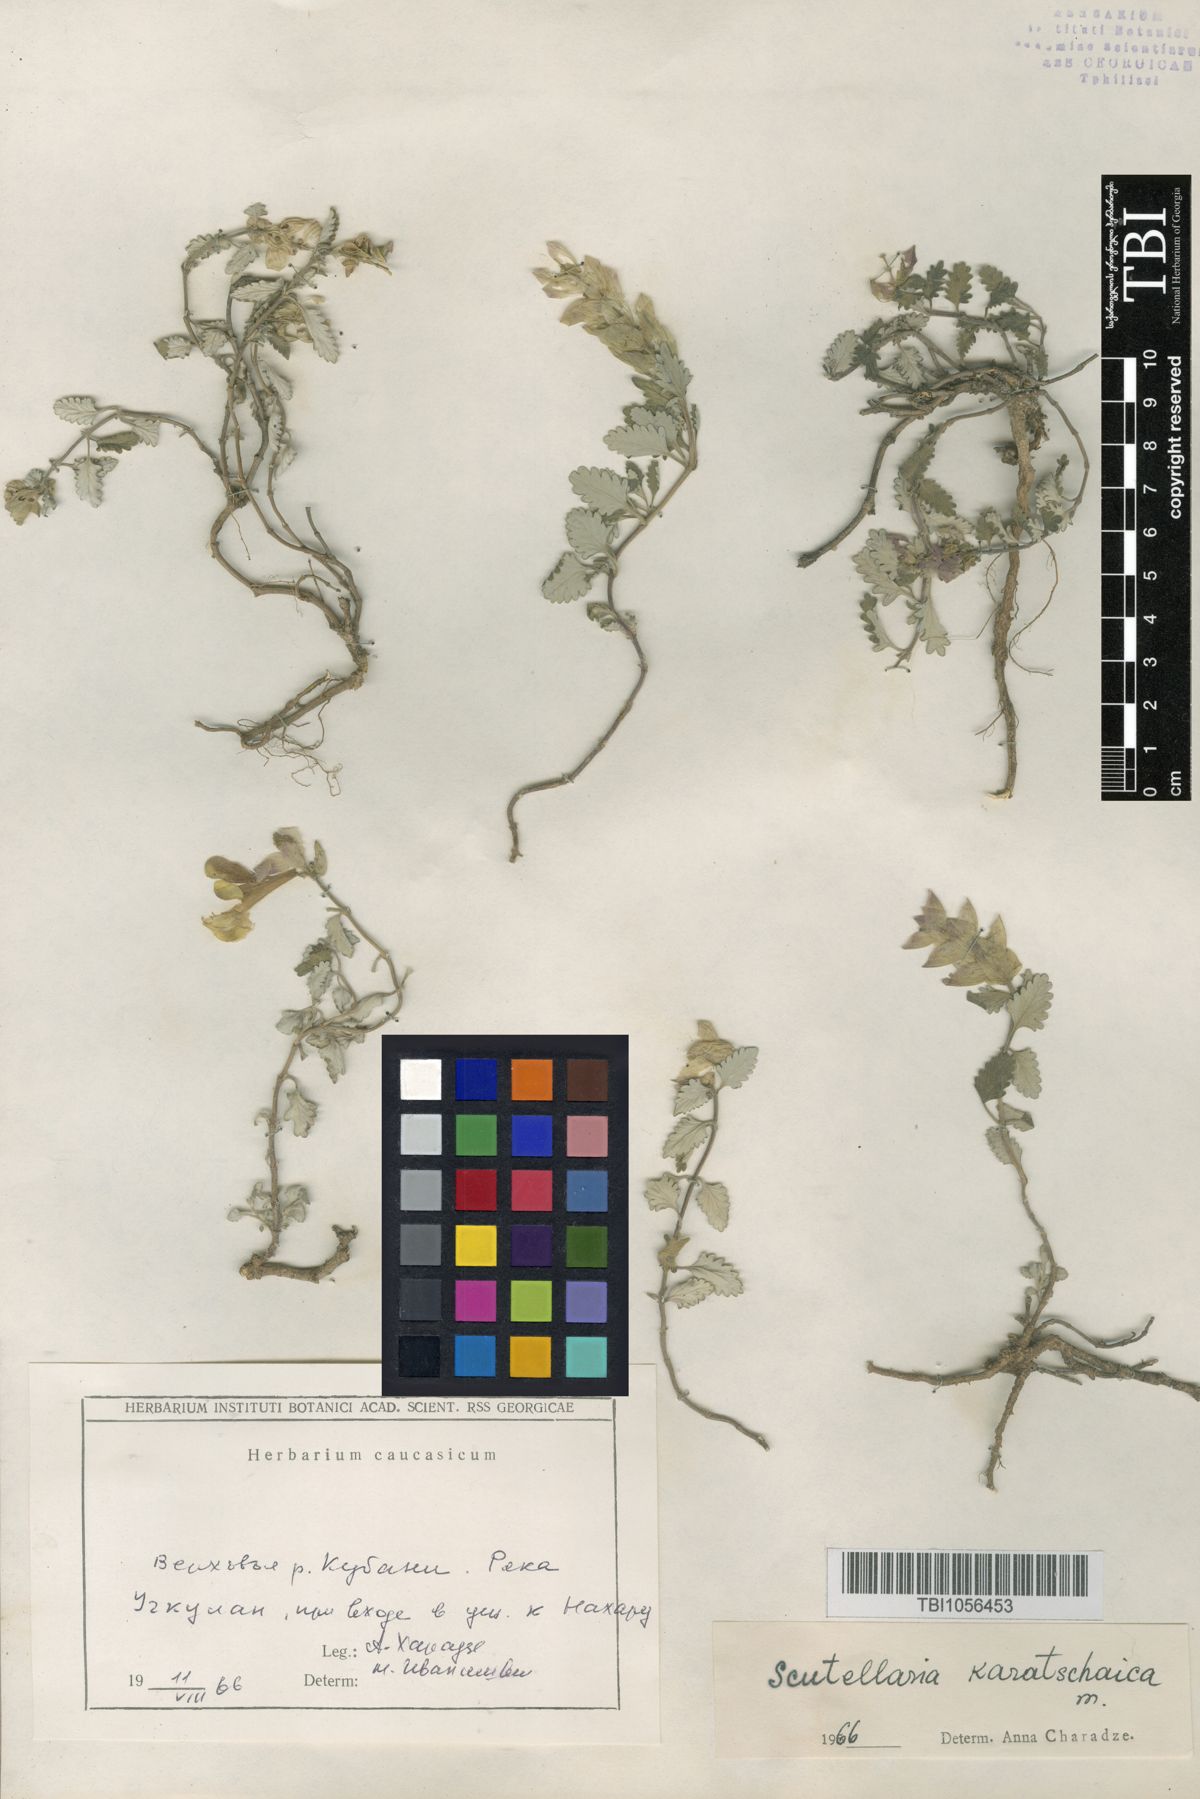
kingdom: Plantae
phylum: Tracheophyta
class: Magnoliopsida
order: Lamiales
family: Lamiaceae
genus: Scutellaria
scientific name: Scutellaria orientalis
